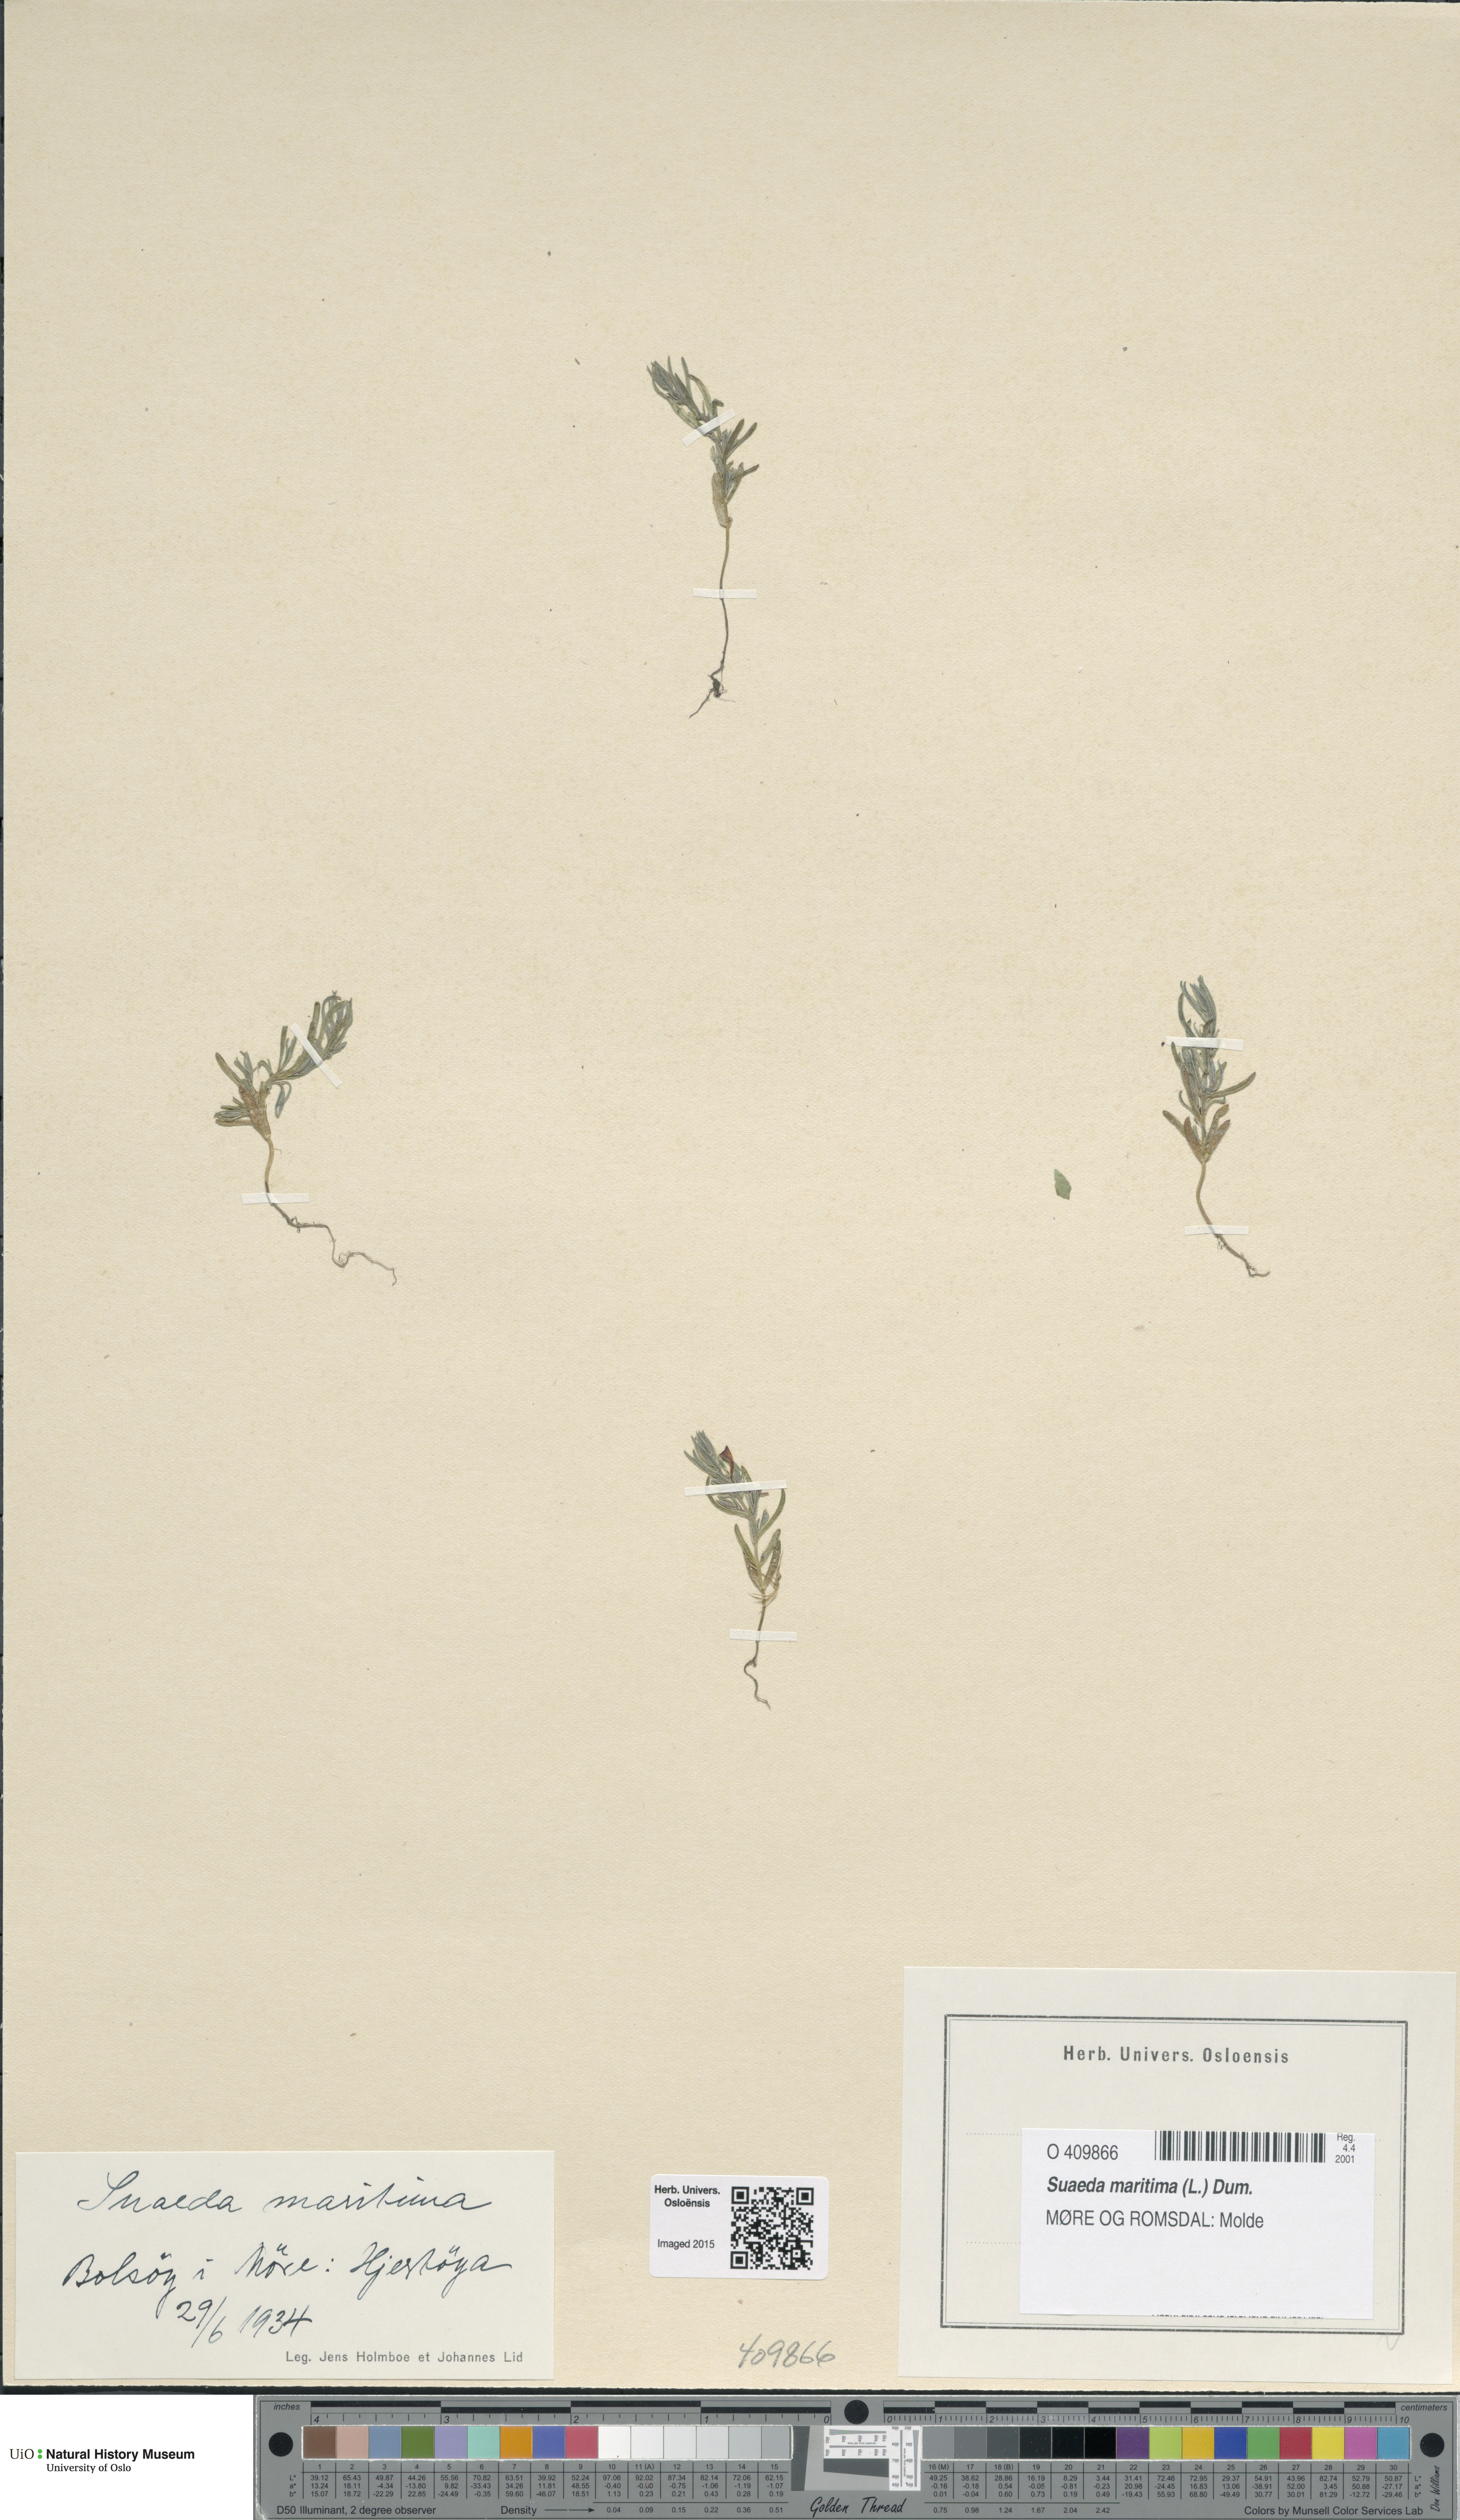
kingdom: Plantae
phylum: Tracheophyta
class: Magnoliopsida
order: Caryophyllales
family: Amaranthaceae
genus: Suaeda
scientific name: Suaeda maritima
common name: Annual sea-blite
